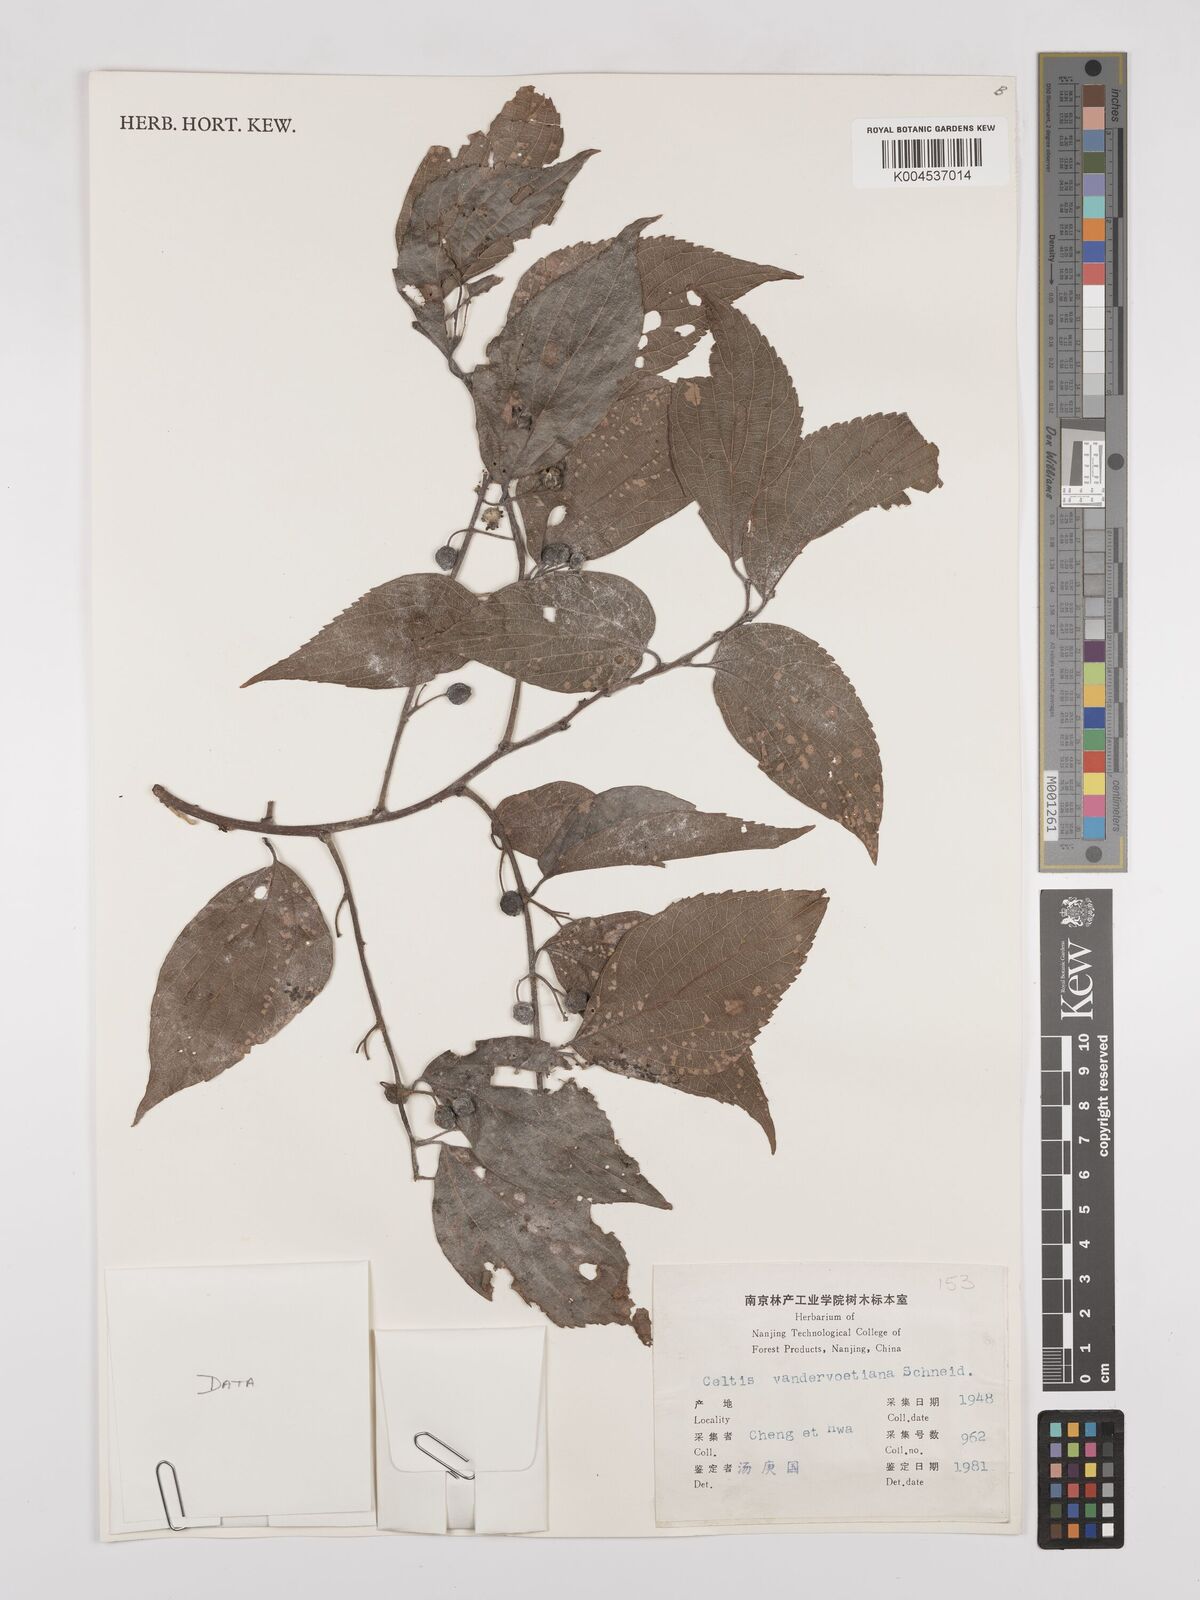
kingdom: Plantae
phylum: Tracheophyta
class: Magnoliopsida
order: Rosales
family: Cannabaceae
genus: Celtis
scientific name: Celtis tetrandra
